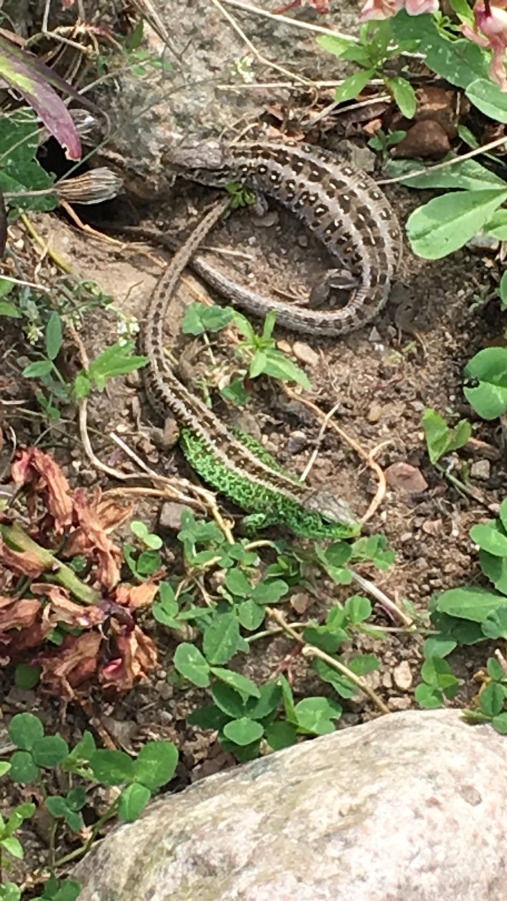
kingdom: Animalia
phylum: Chordata
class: Squamata
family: Lacertidae
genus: Lacerta
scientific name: Lacerta agilis
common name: Markfirben
